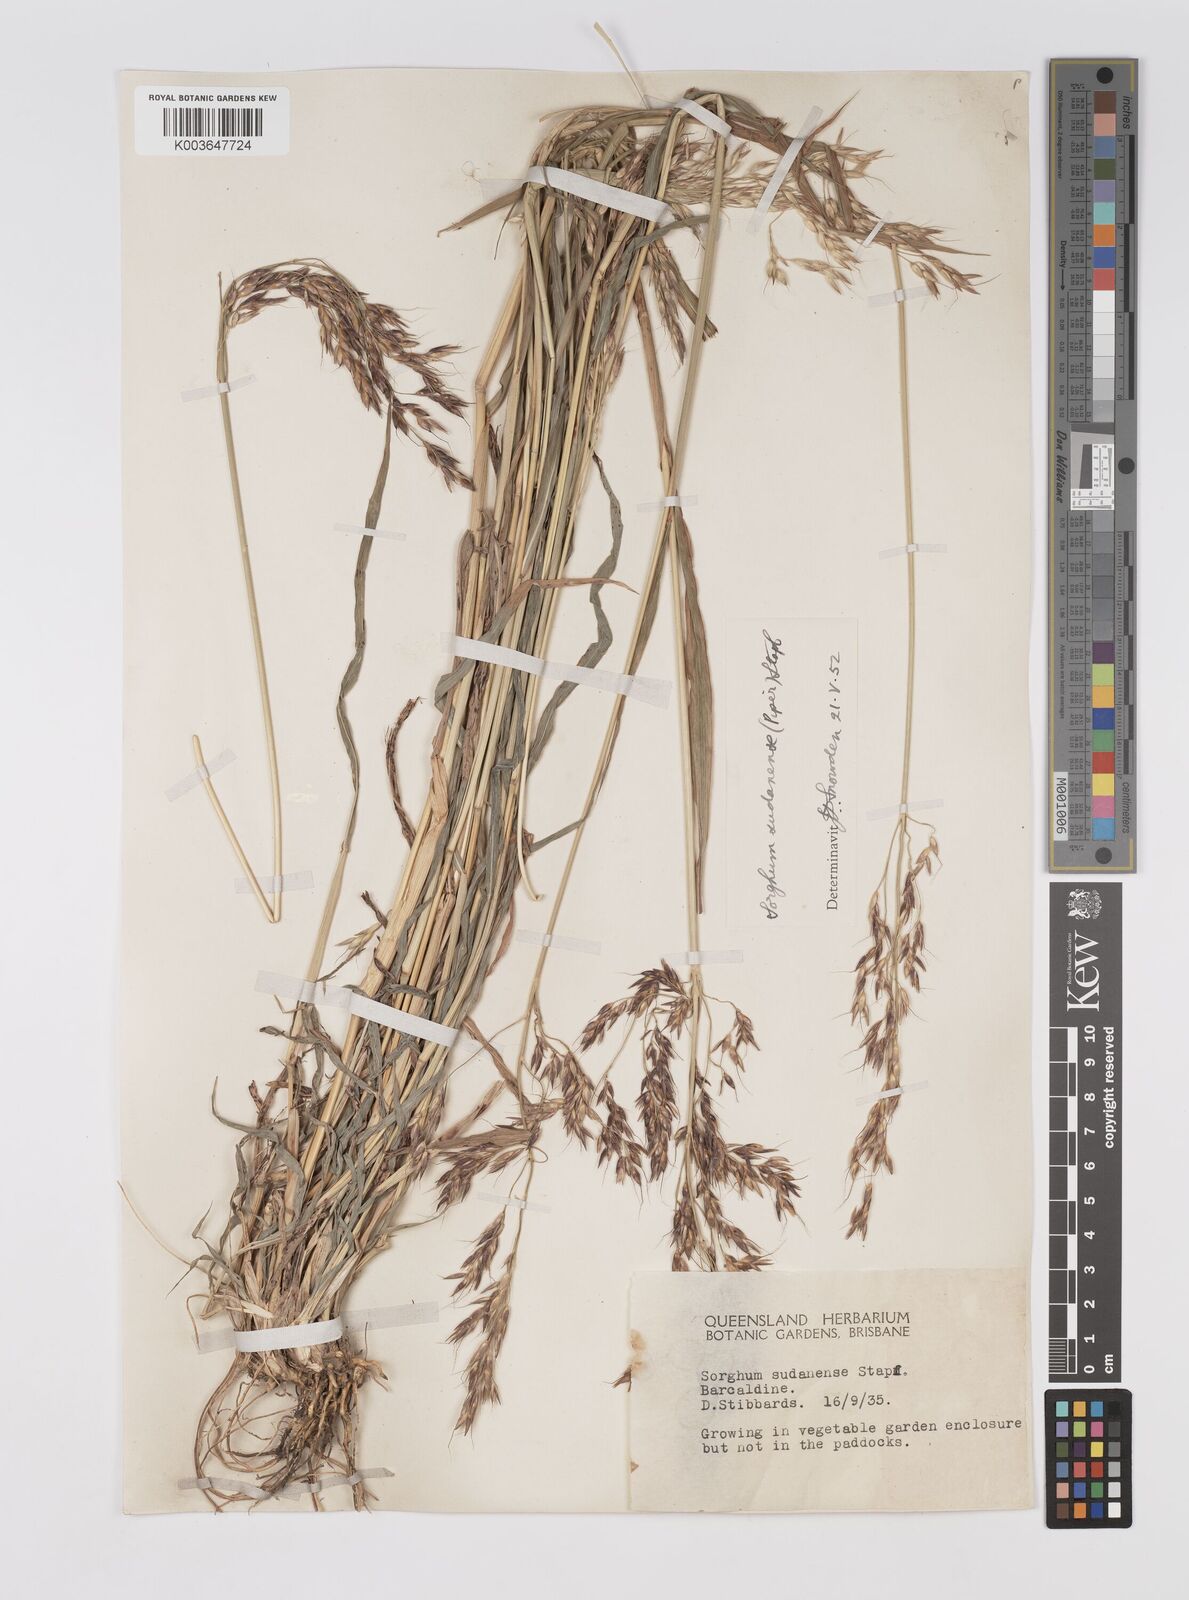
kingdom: Plantae
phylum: Tracheophyta
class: Liliopsida
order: Poales
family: Poaceae
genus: Sorghum
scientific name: Sorghum drummondii
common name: Sudangrass
